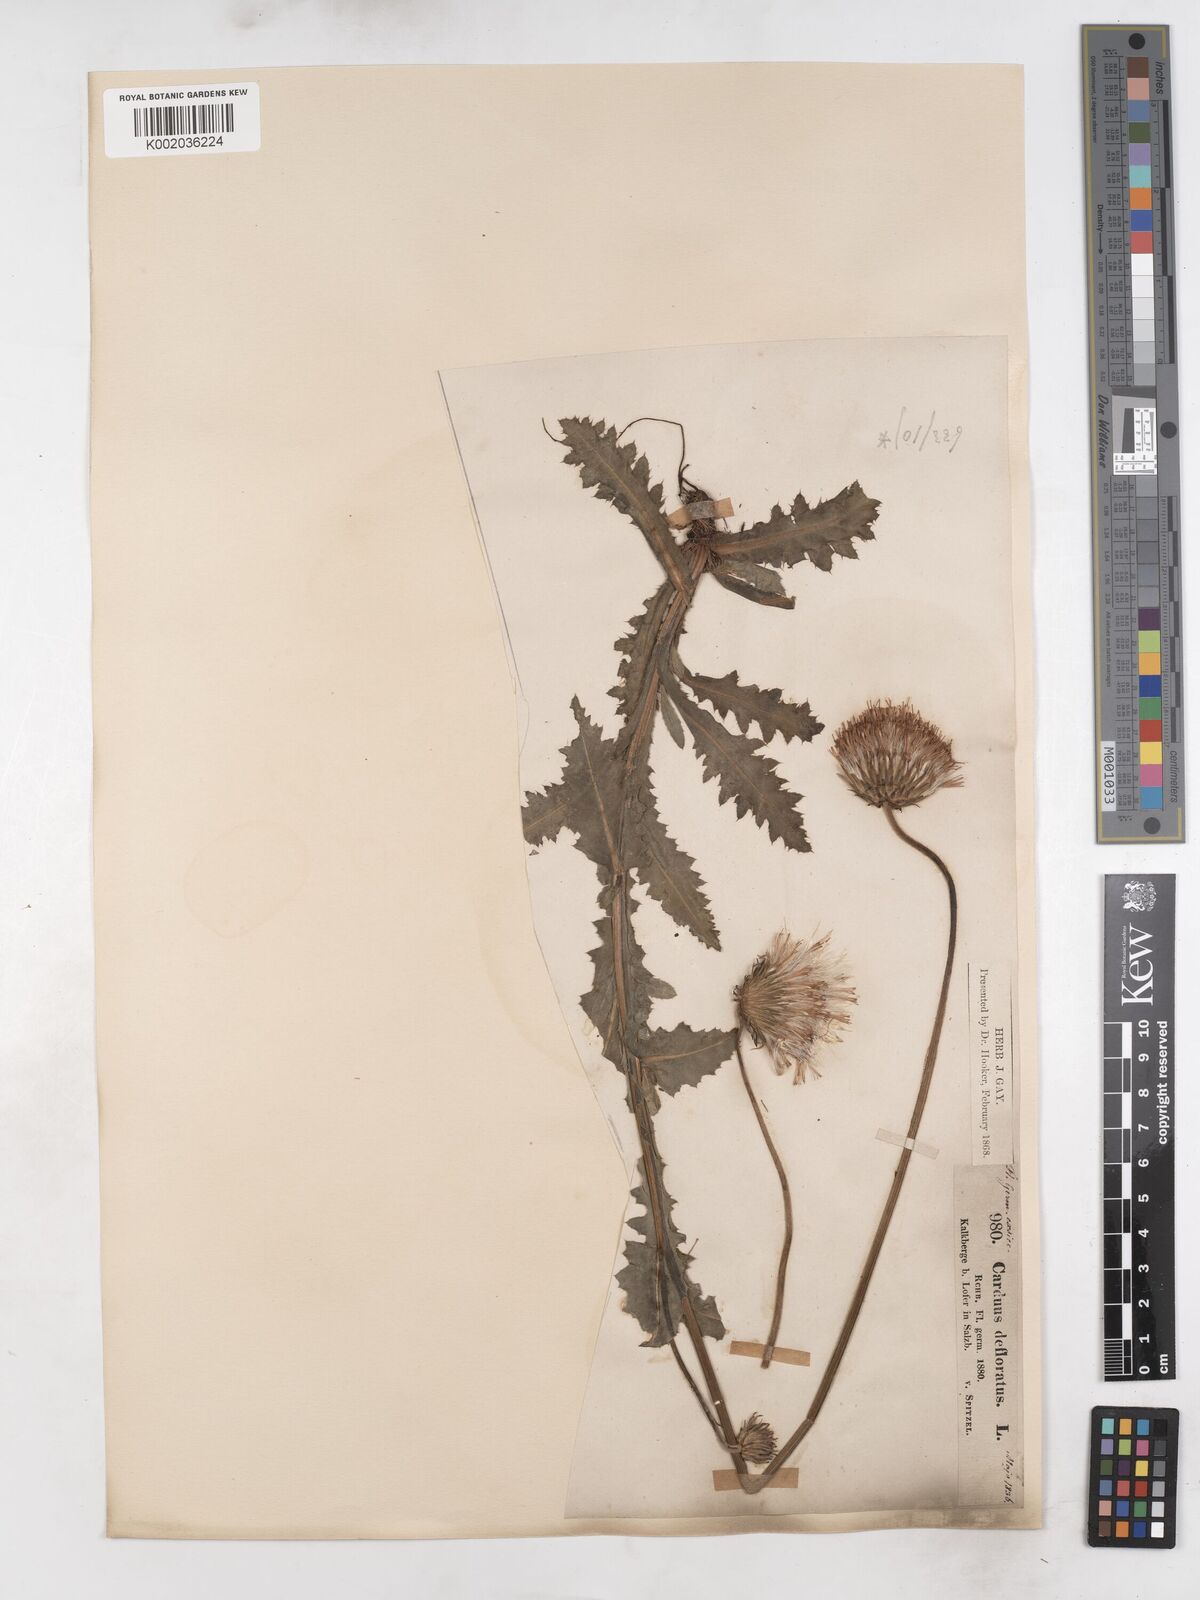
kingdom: Plantae
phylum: Tracheophyta
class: Magnoliopsida
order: Asterales
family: Asteraceae
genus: Carduus
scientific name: Carduus defloratus
